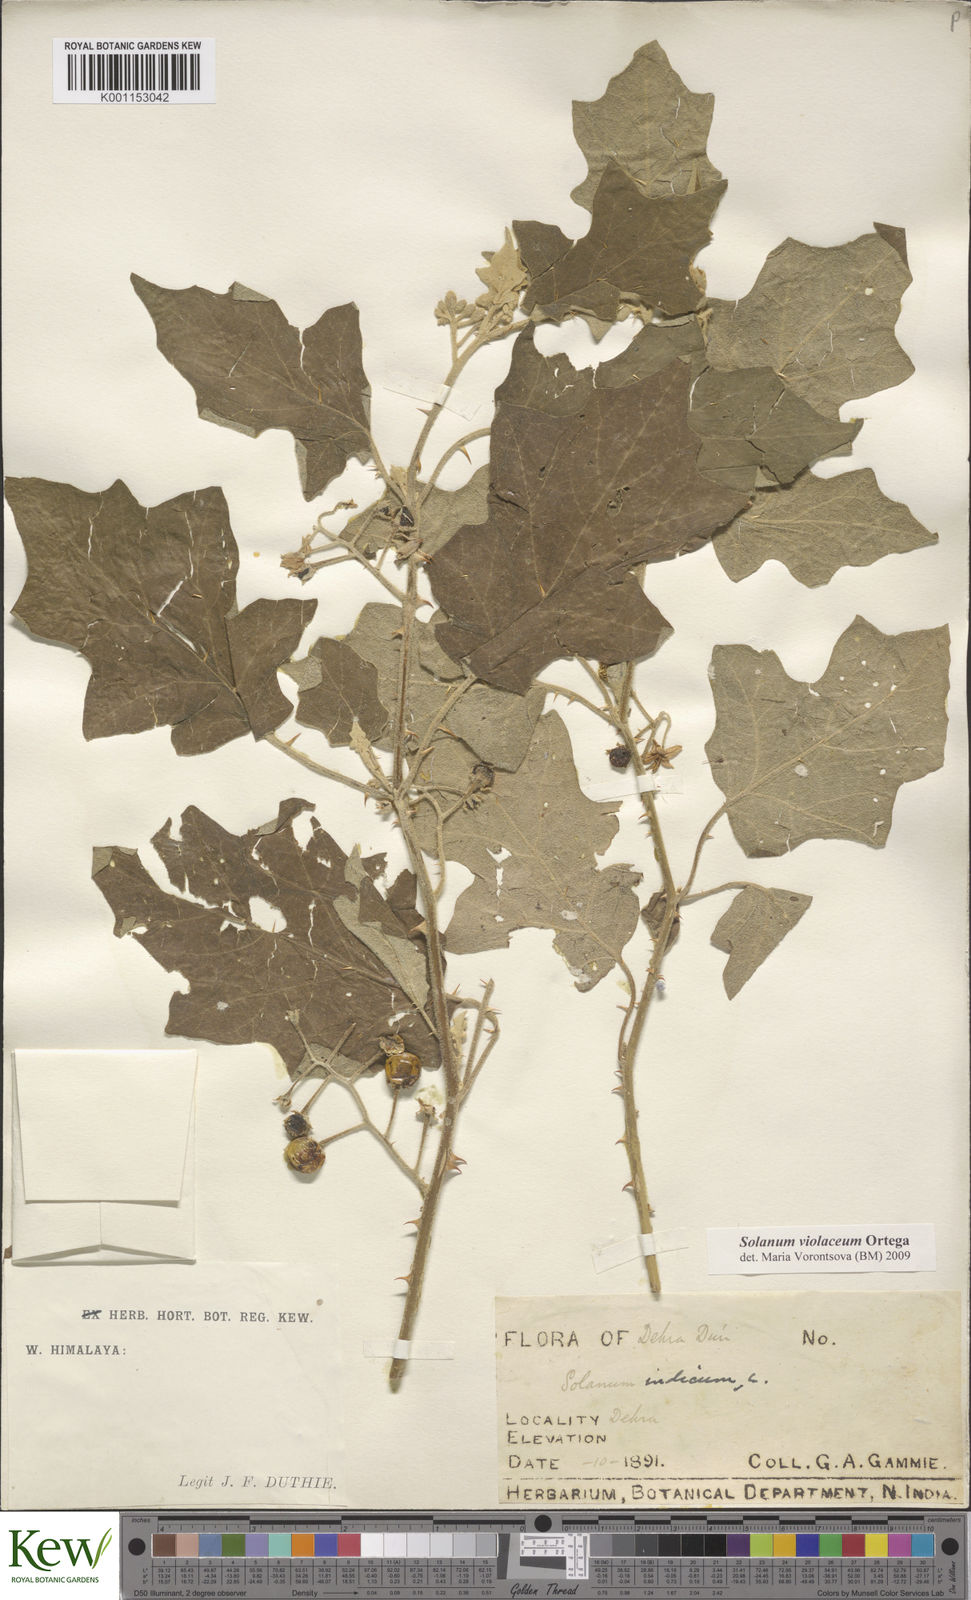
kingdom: Plantae
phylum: Tracheophyta
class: Magnoliopsida
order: Solanales
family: Solanaceae
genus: Solanum
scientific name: Solanum violaceum
